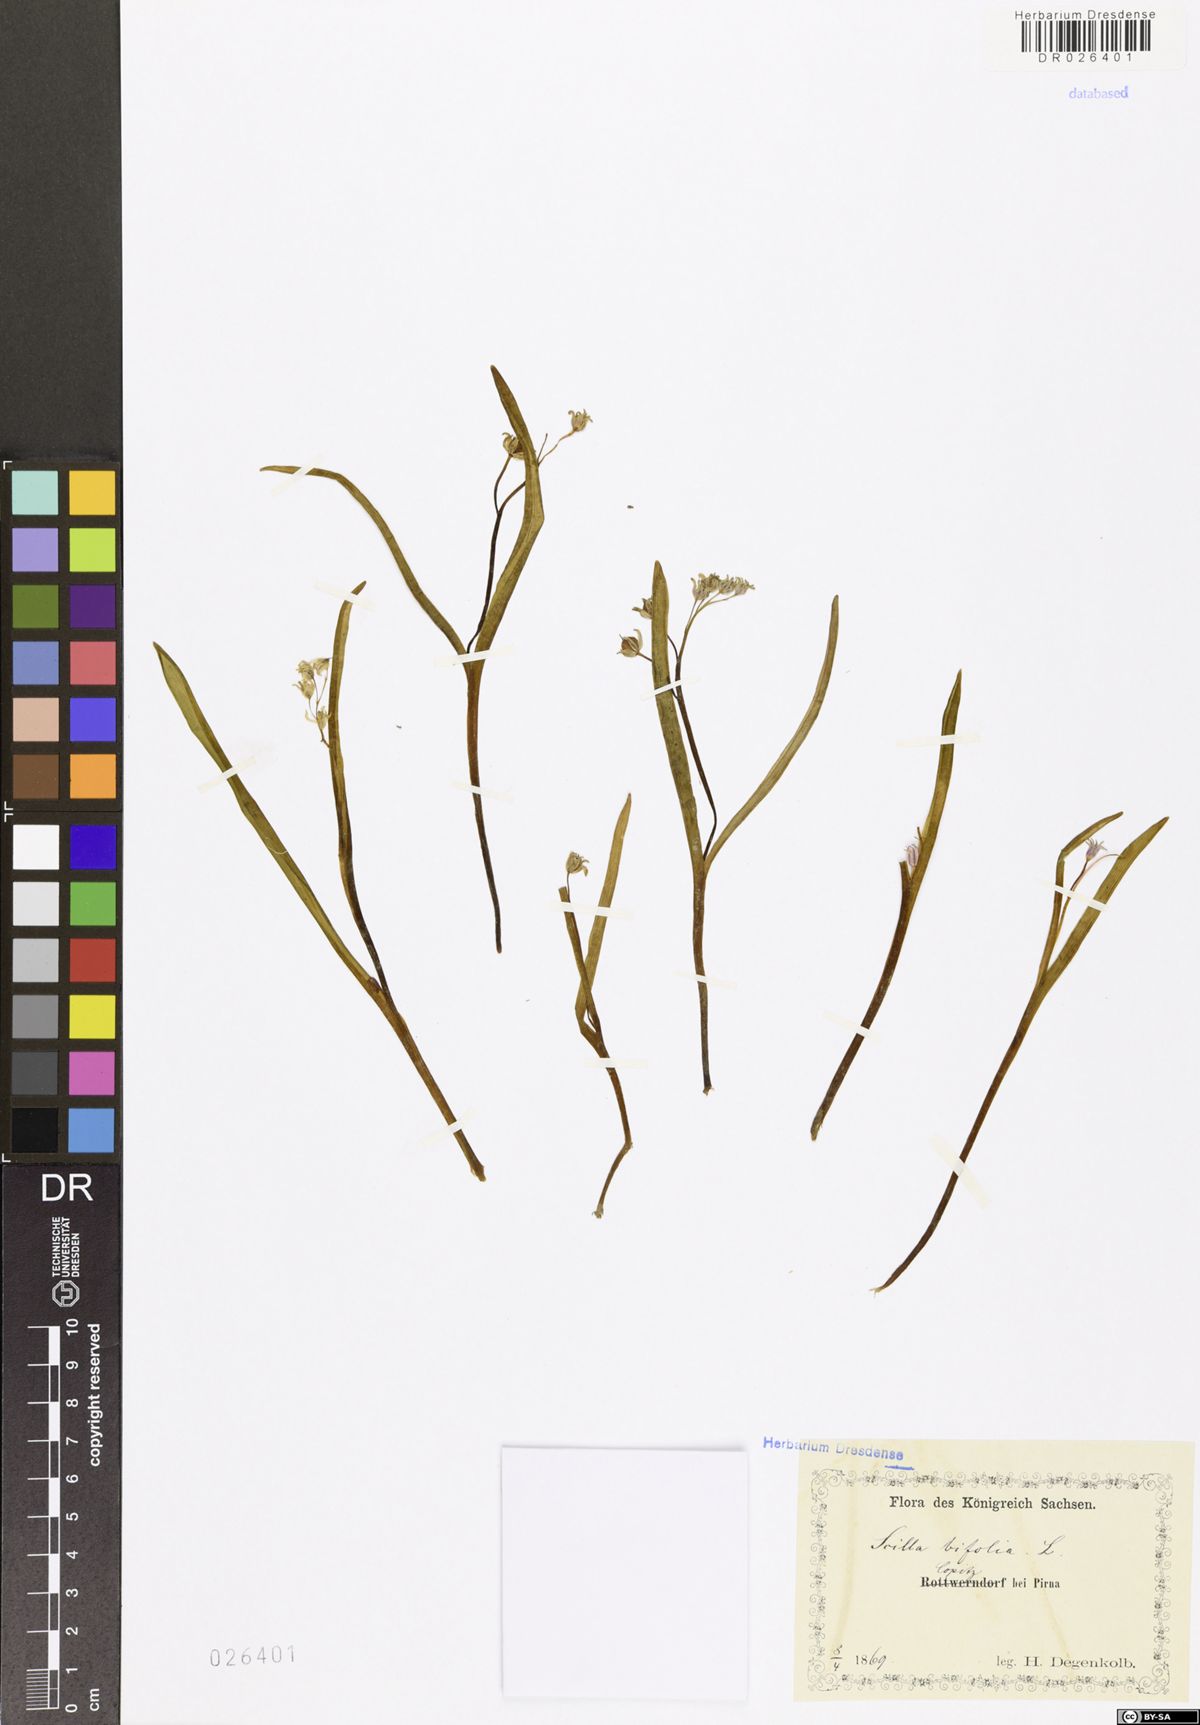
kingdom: Plantae
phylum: Tracheophyta
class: Liliopsida
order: Asparagales
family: Asparagaceae
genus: Scilla
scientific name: Scilla vindobonensis
